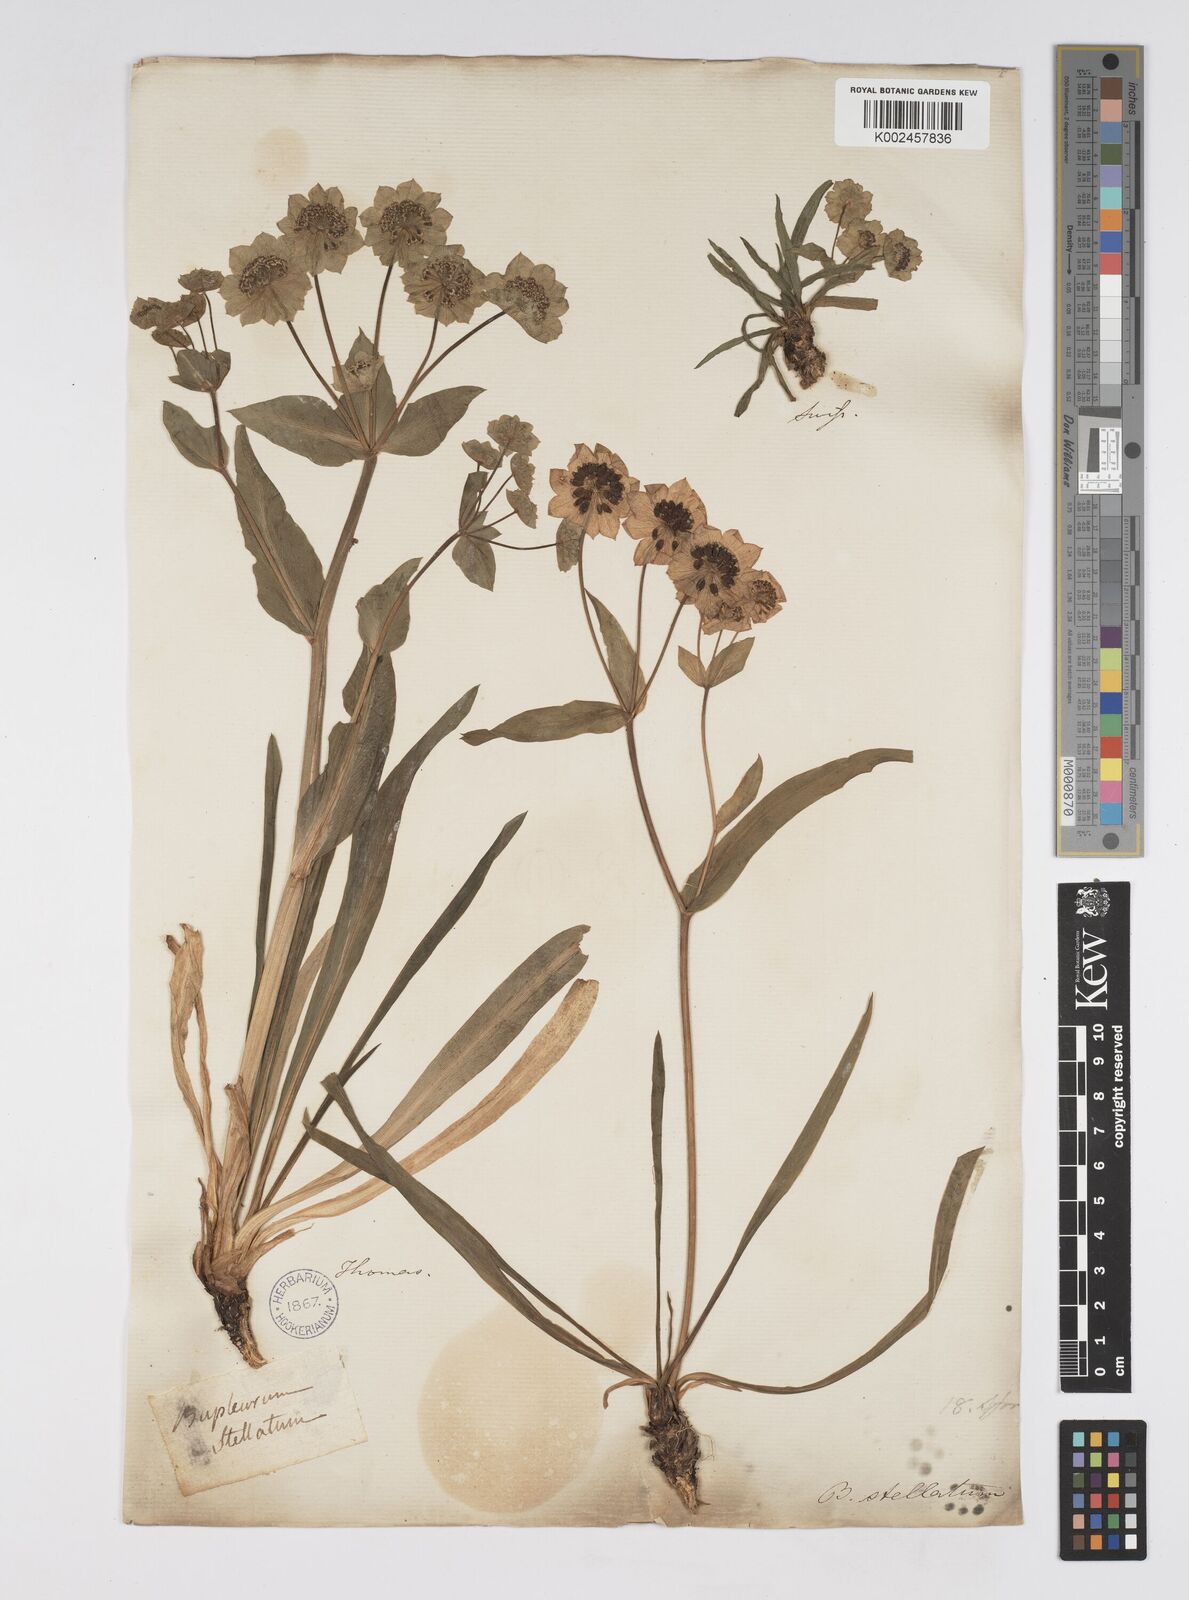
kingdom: Plantae
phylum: Tracheophyta
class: Magnoliopsida
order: Apiales
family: Apiaceae
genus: Bupleurum
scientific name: Bupleurum stellatum
